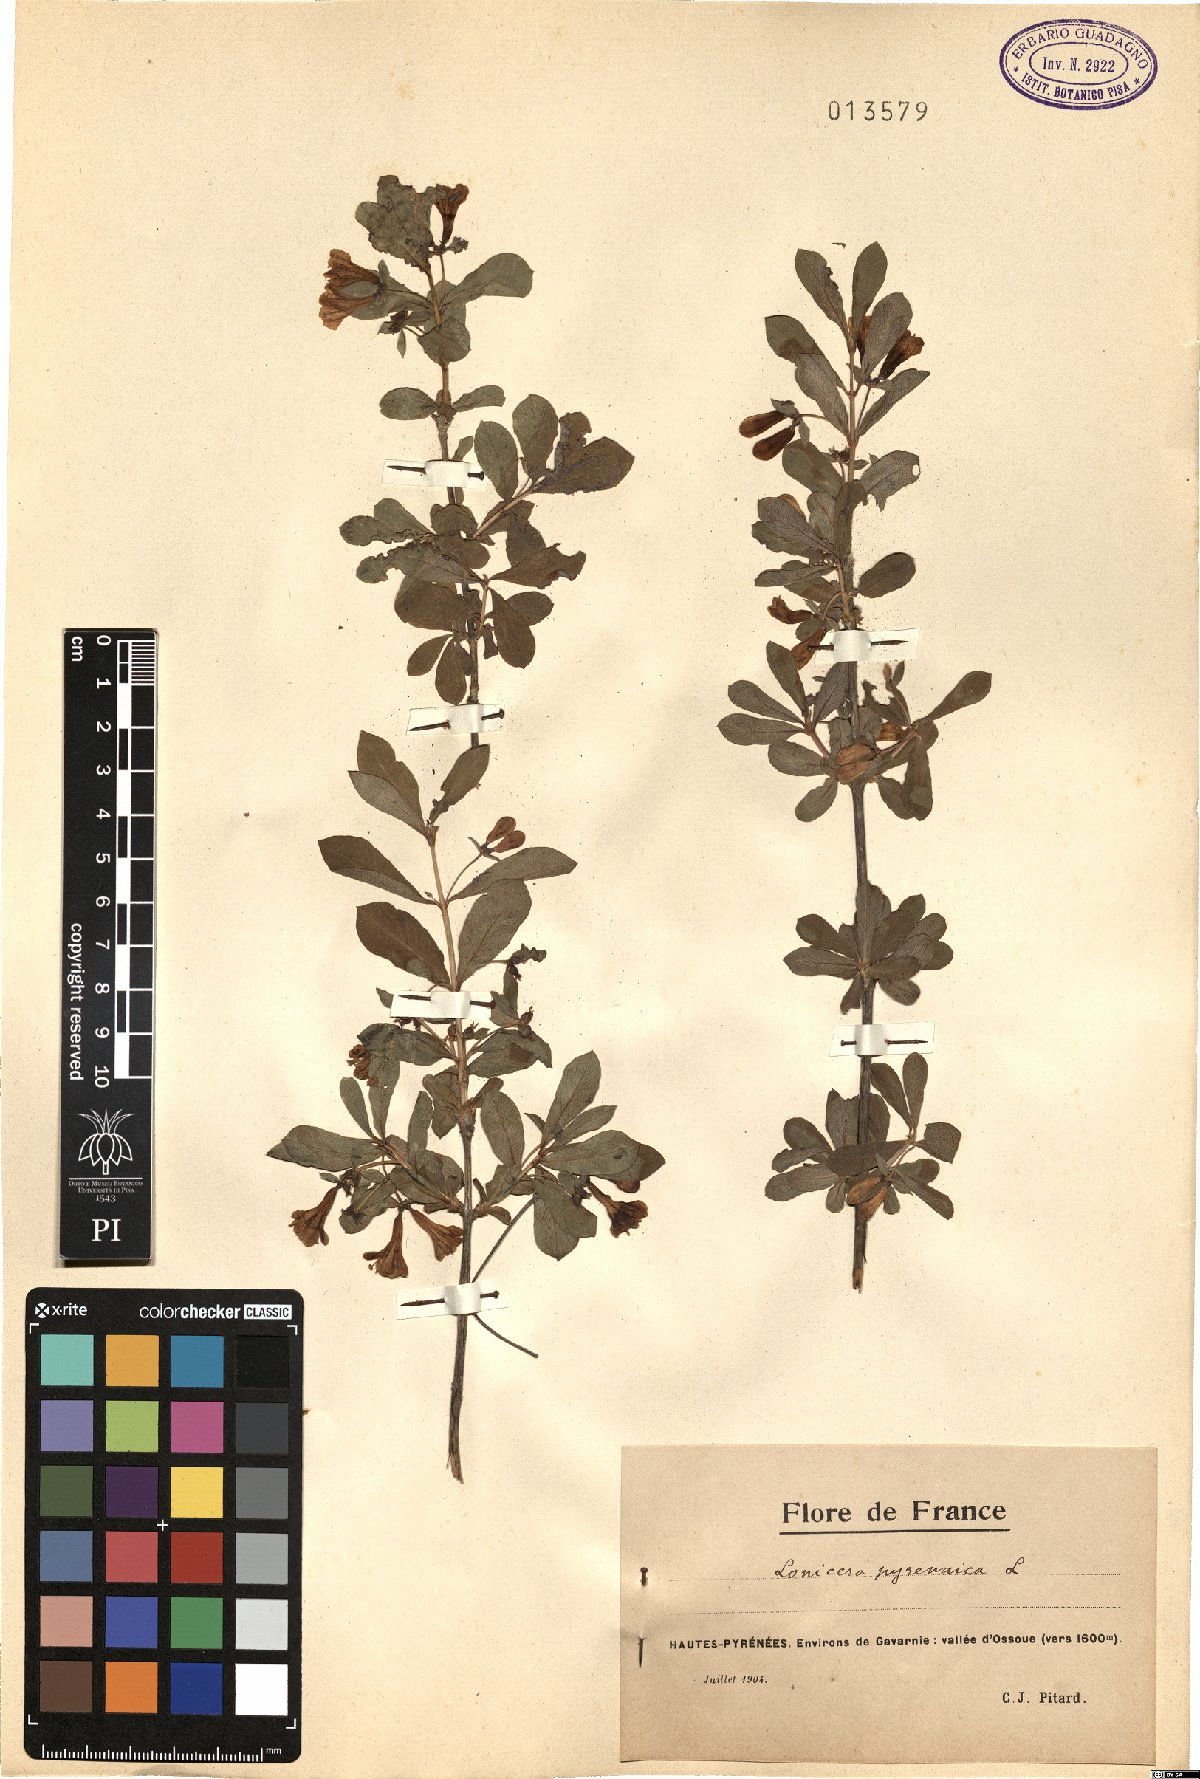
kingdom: Plantae
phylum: Tracheophyta
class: Magnoliopsida
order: Dipsacales
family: Caprifoliaceae
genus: Lonicera
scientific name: Lonicera pyrenaica
